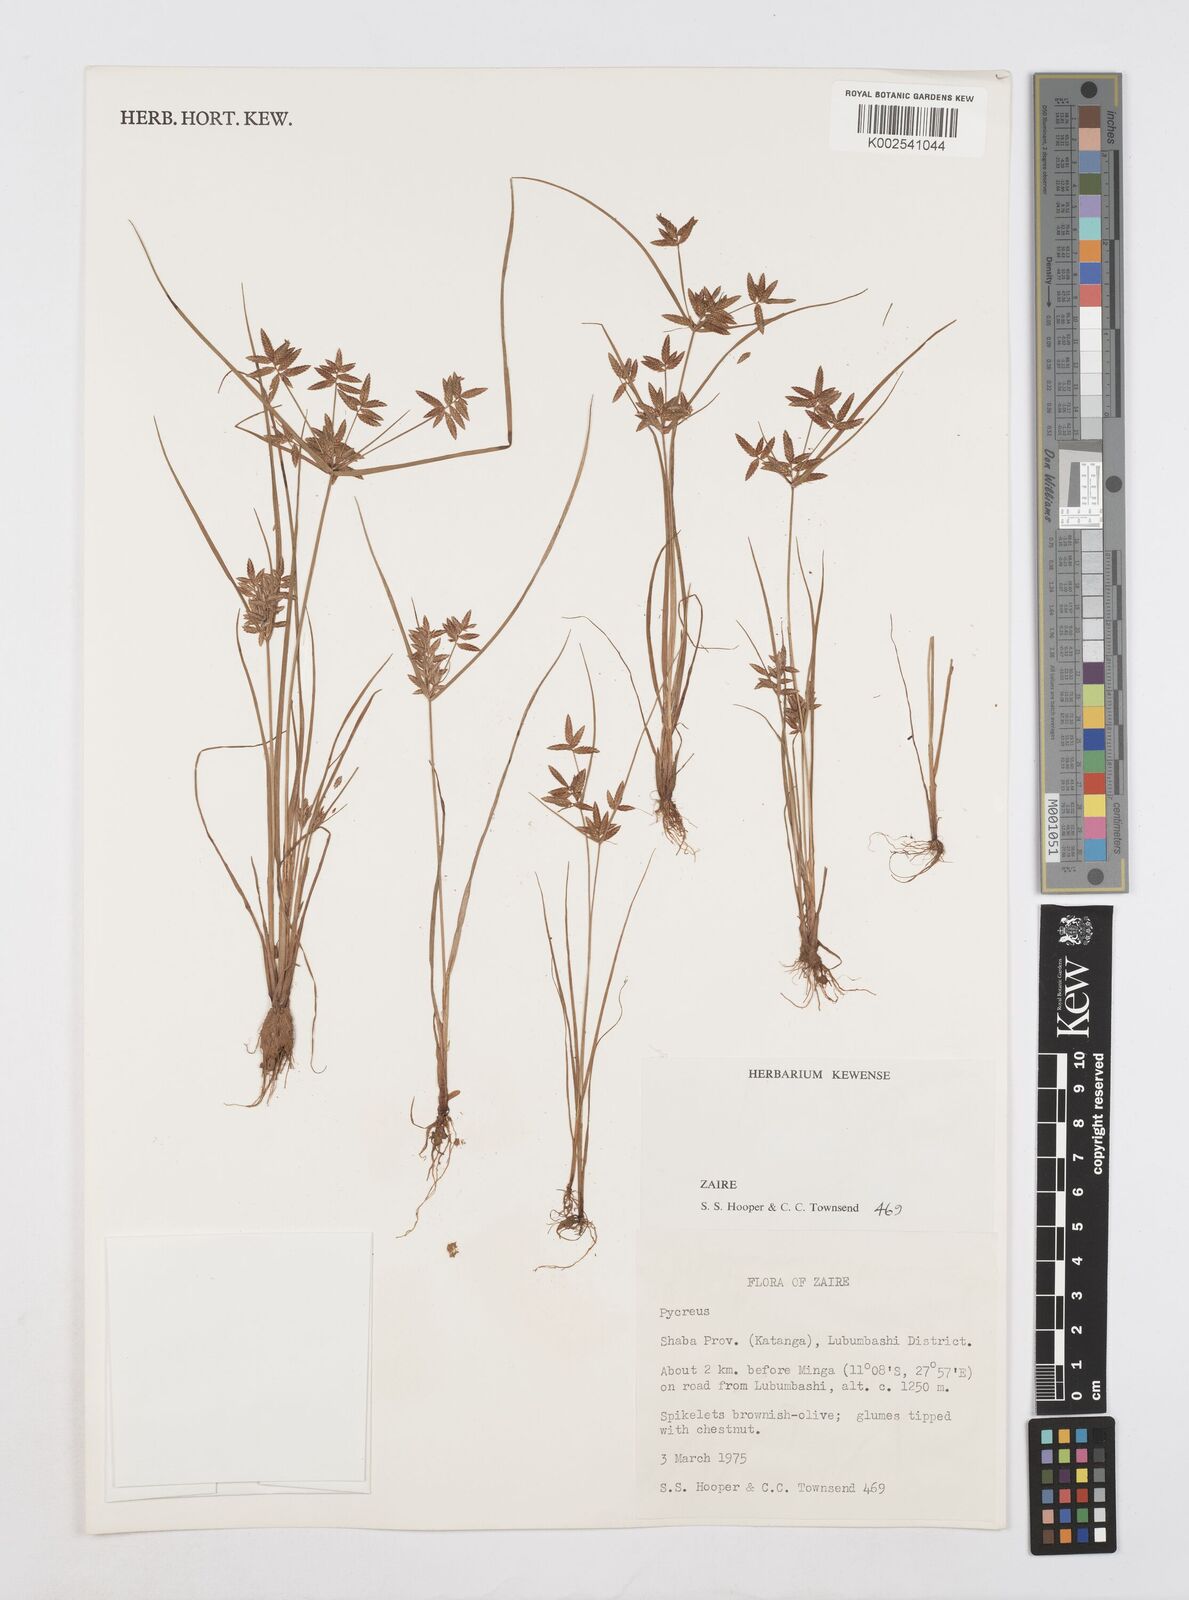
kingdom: Plantae
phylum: Tracheophyta
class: Liliopsida
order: Poales
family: Cyperaceae
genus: Cyperus
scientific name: Cyperus
